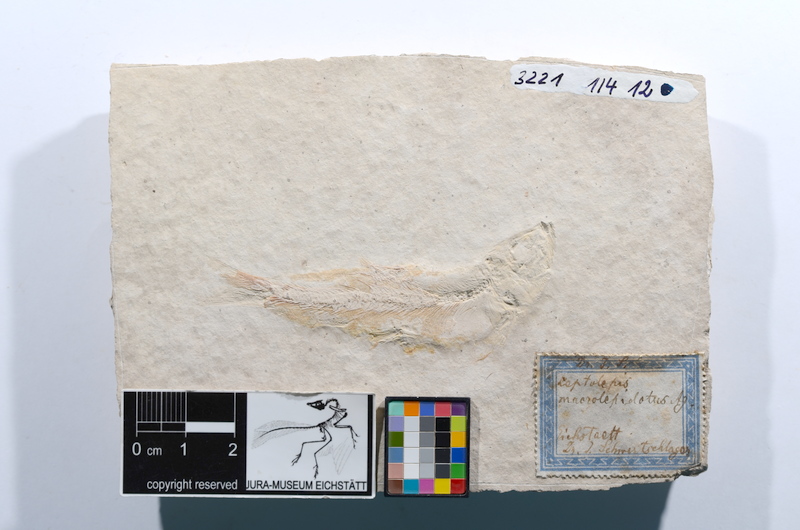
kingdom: Animalia
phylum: Chordata
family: Ascalaboidae
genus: Tharsis
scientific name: Tharsis dubius
